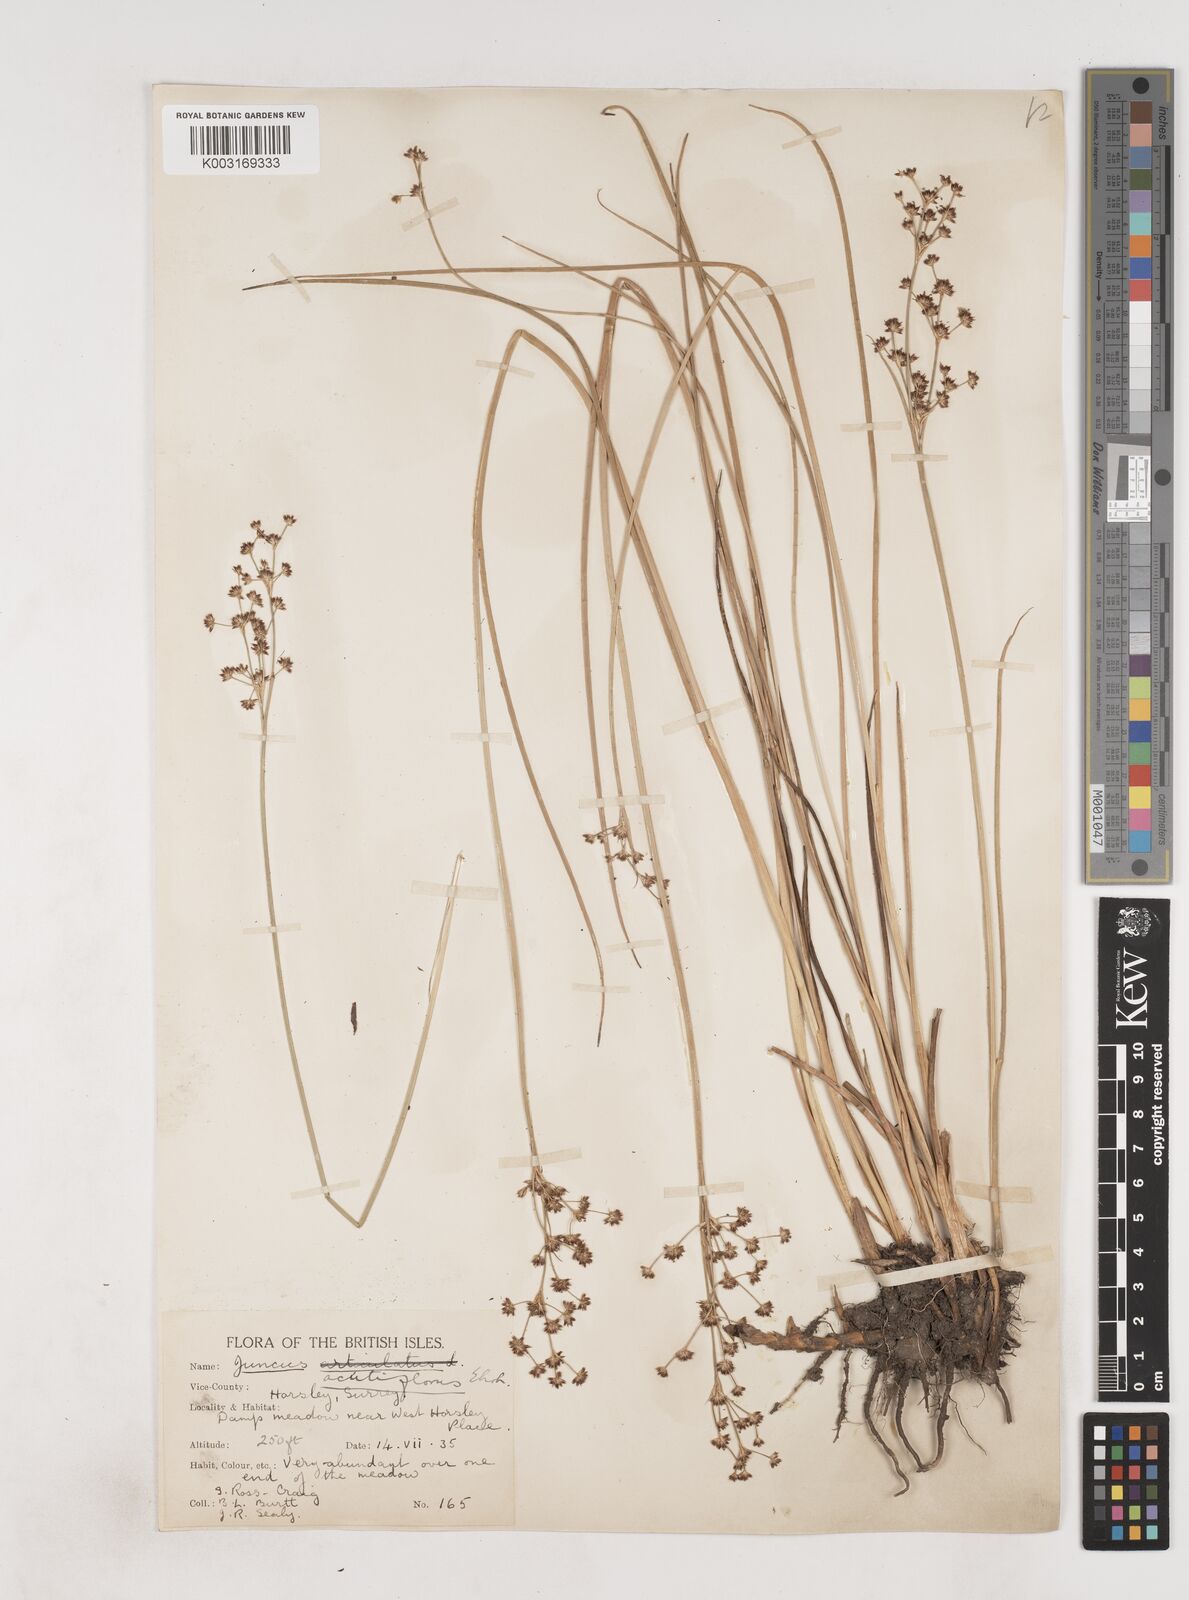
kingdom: Plantae
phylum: Tracheophyta
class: Liliopsida
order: Poales
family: Juncaceae
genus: Juncus
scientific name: Juncus acutiflorus
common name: Sharp-flowered rush
